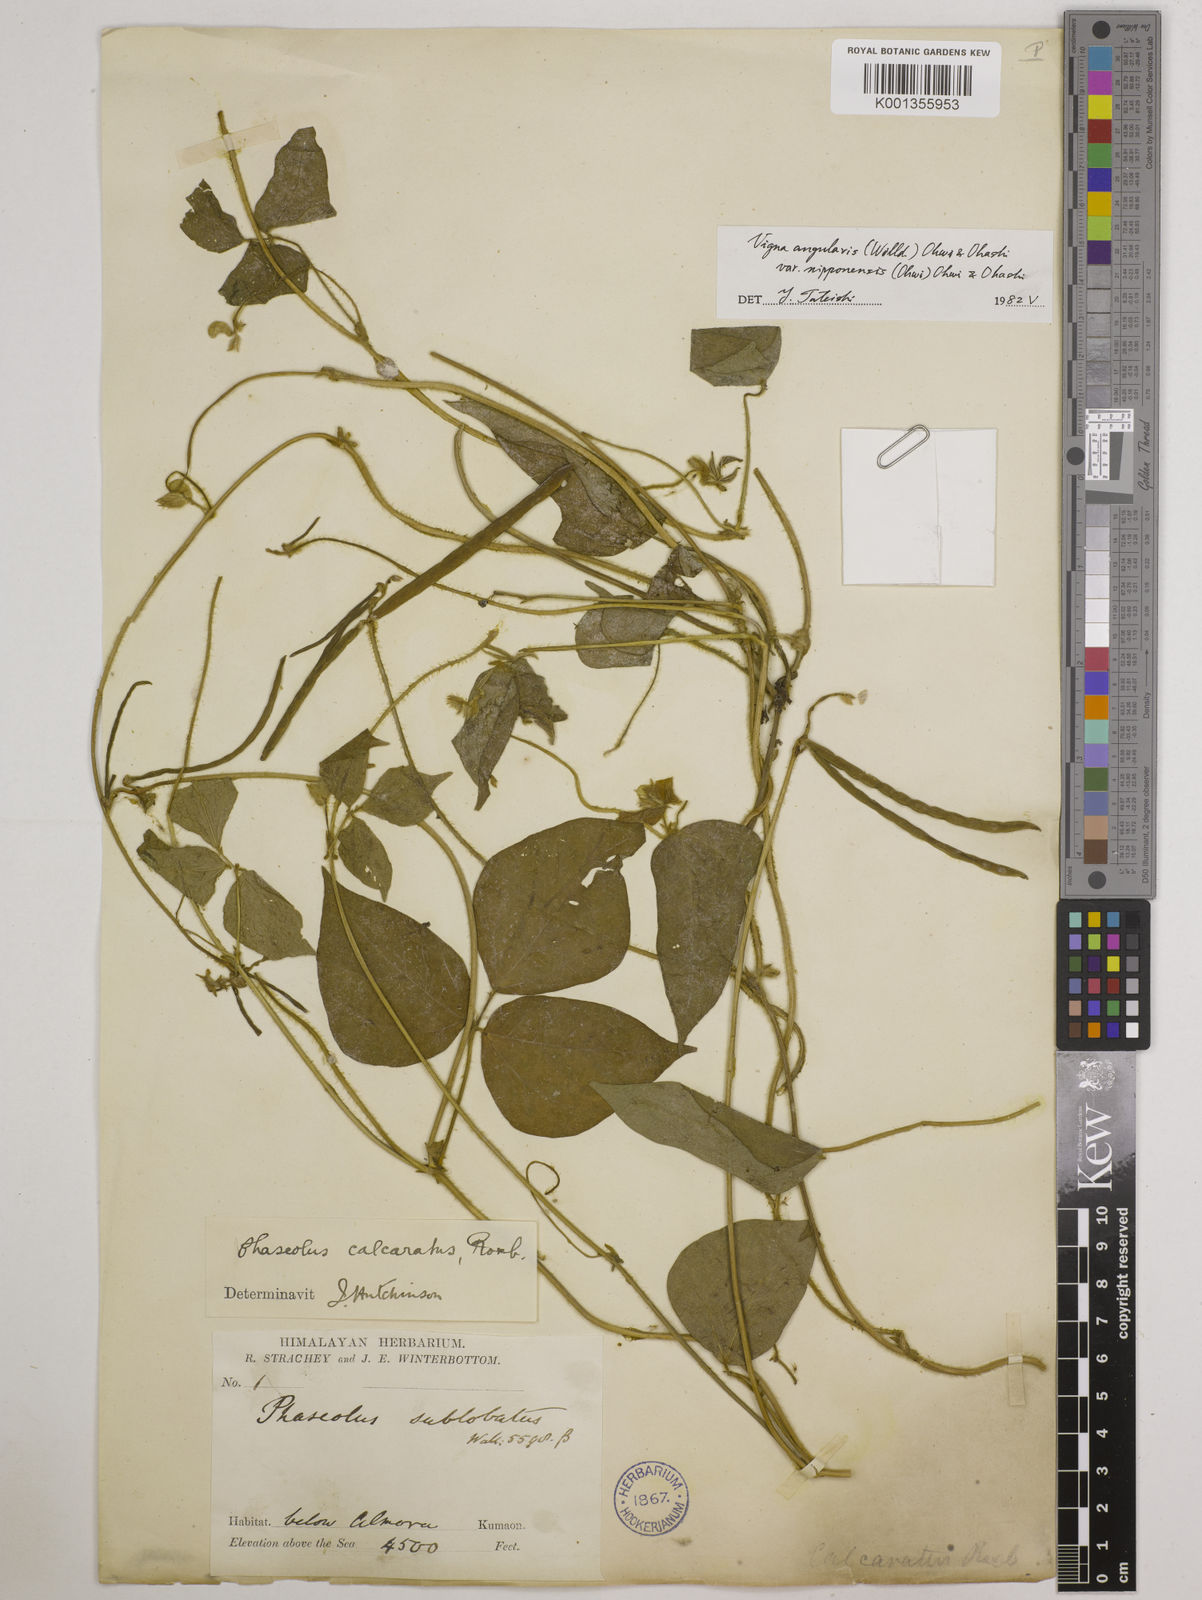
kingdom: Plantae
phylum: Tracheophyta
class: Magnoliopsida
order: Fabales
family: Fabaceae
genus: Vigna
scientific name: Vigna
